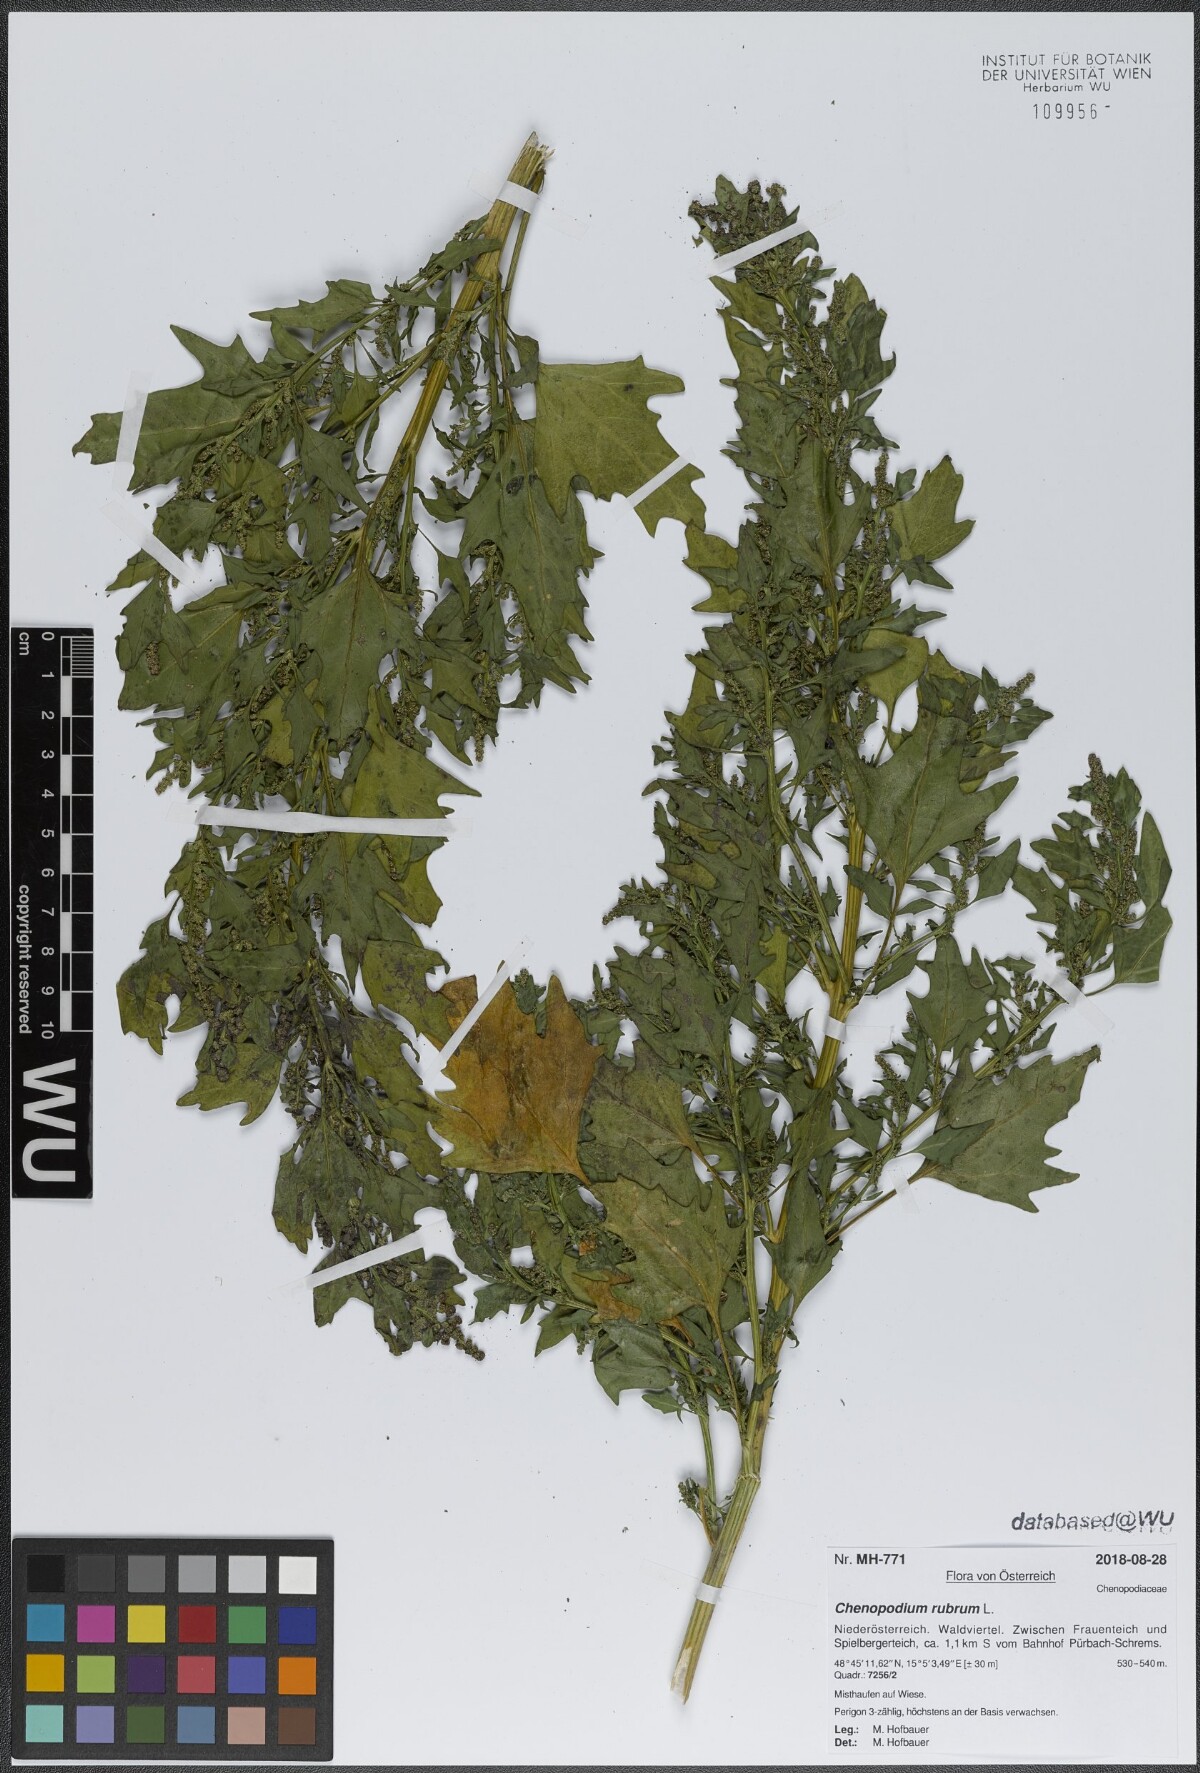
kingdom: Plantae
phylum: Tracheophyta
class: Magnoliopsida
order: Caryophyllales
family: Amaranthaceae
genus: Oxybasis
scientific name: Oxybasis rubra
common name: Red goosefoot
